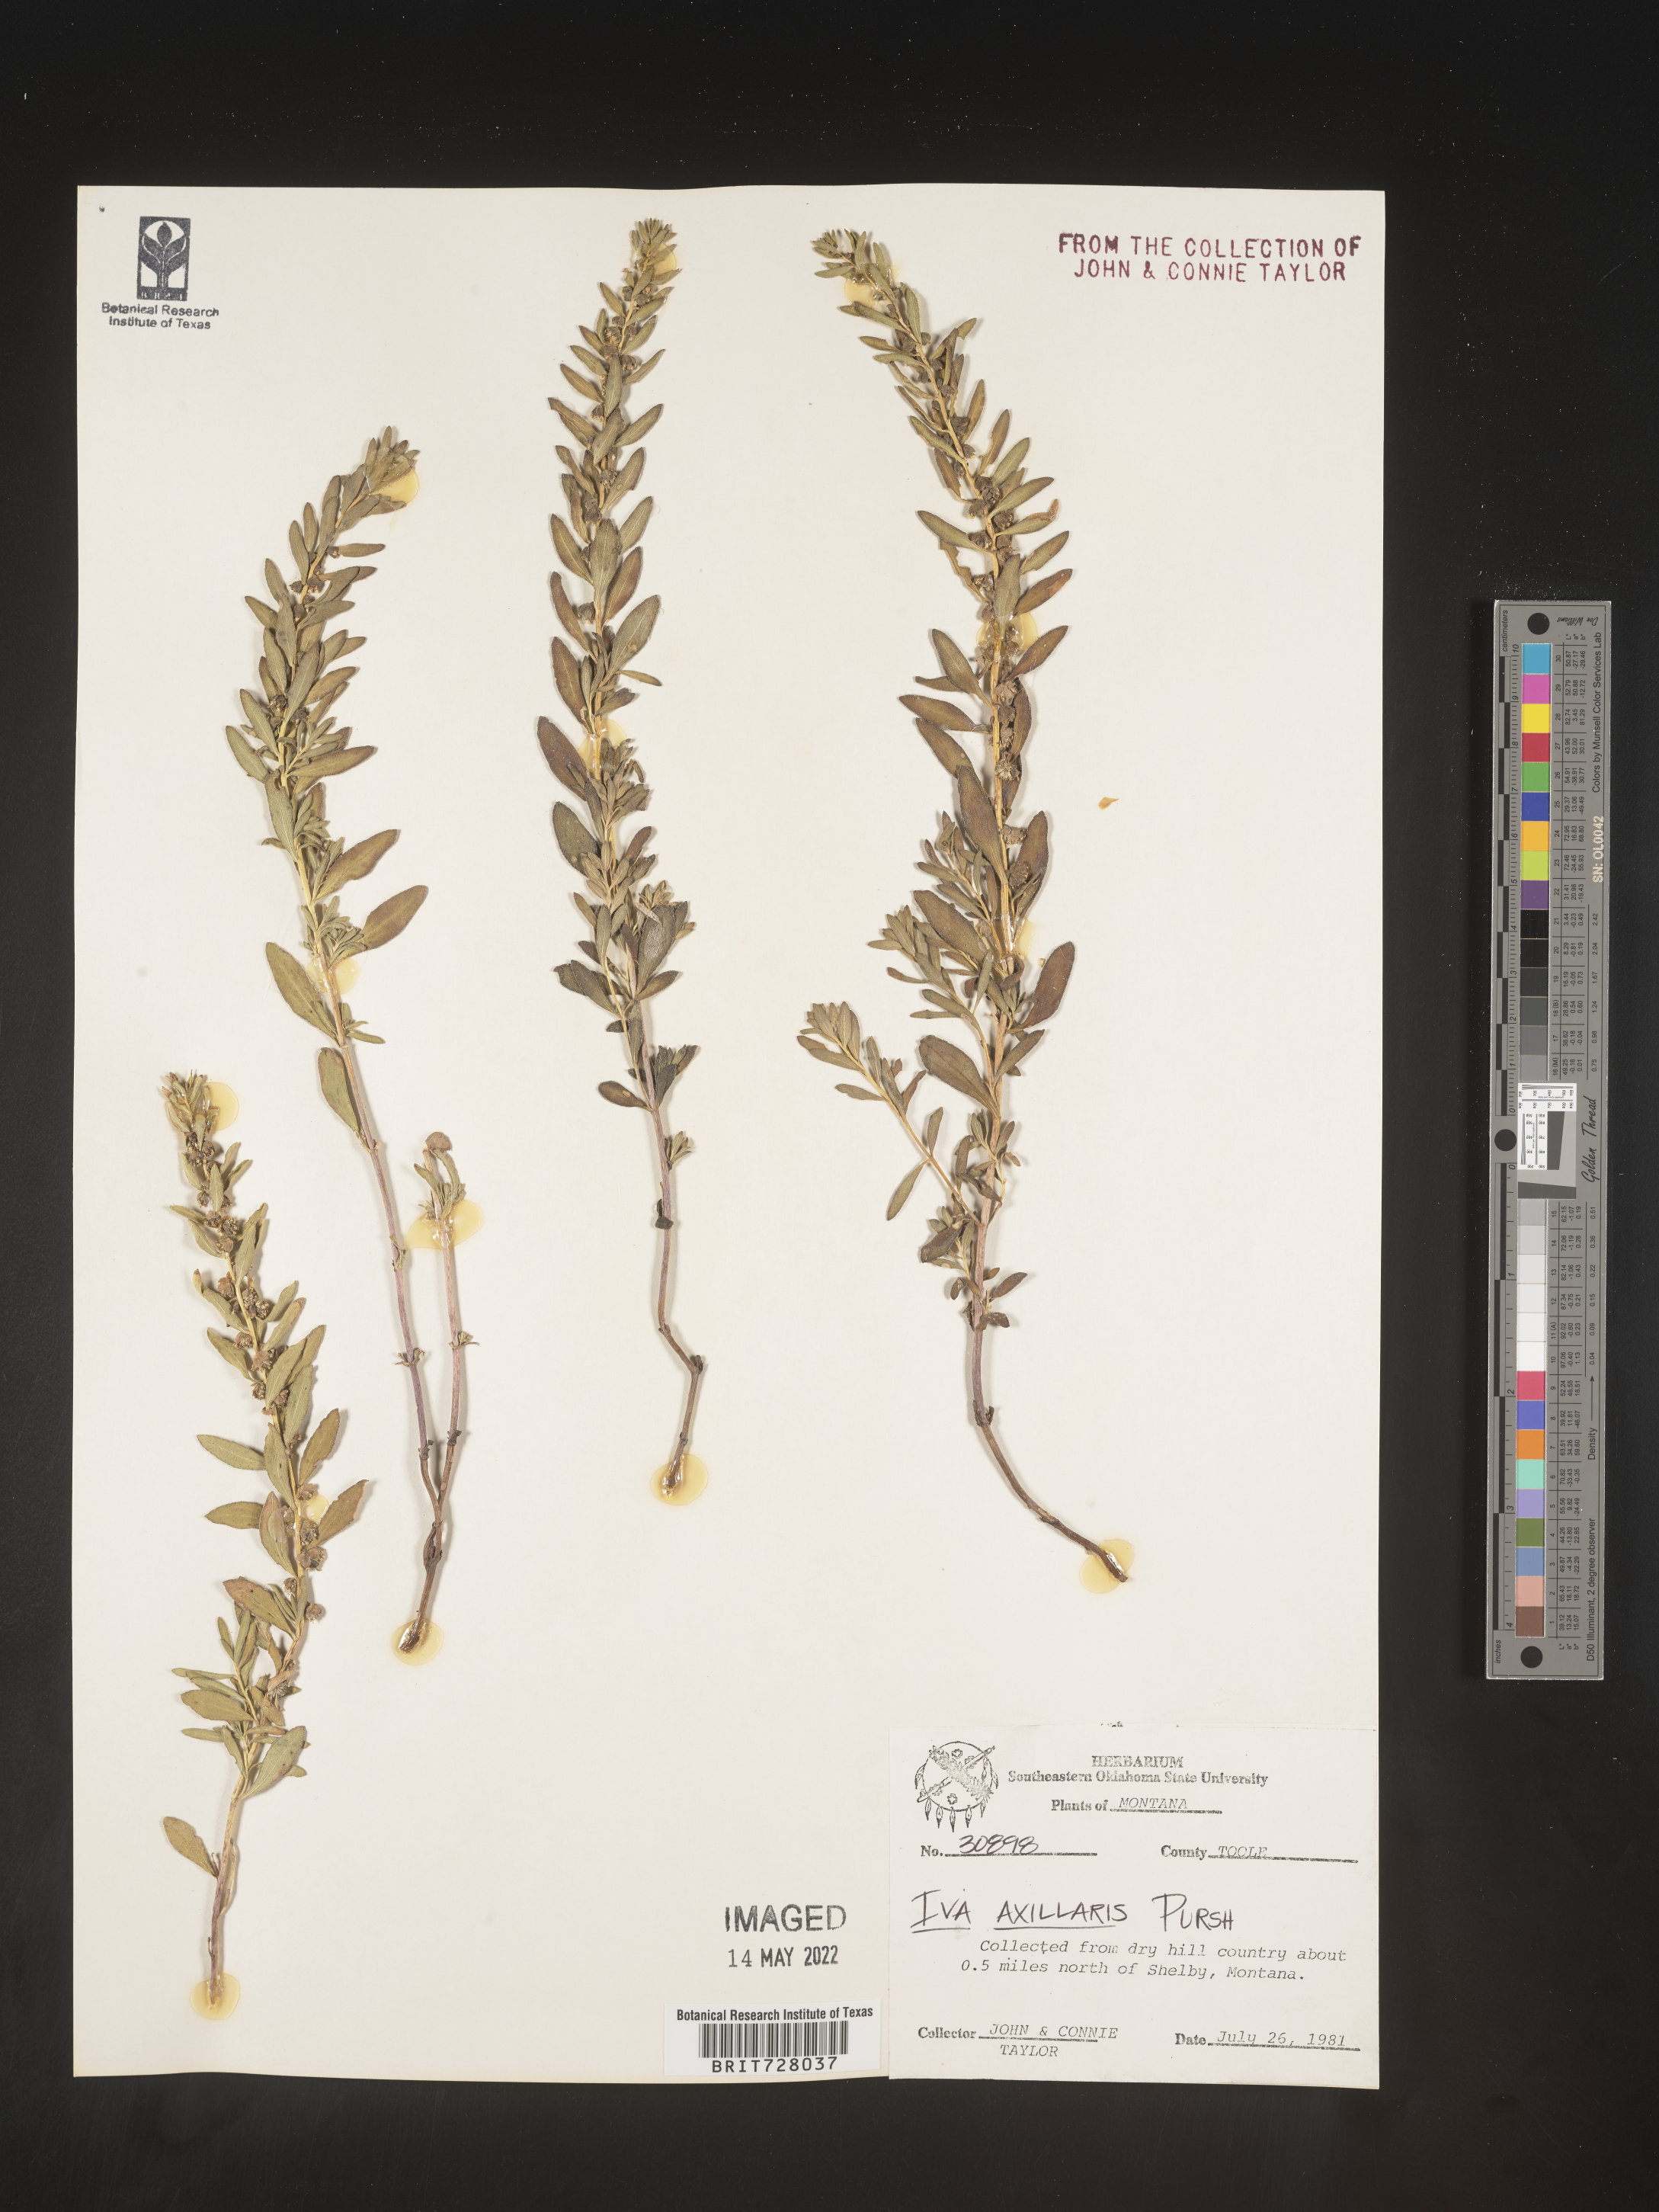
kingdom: Plantae
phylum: Tracheophyta
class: Magnoliopsida
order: Asterales
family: Asteraceae
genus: Iva
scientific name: Iva axillaris
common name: Poverty sumpweed
